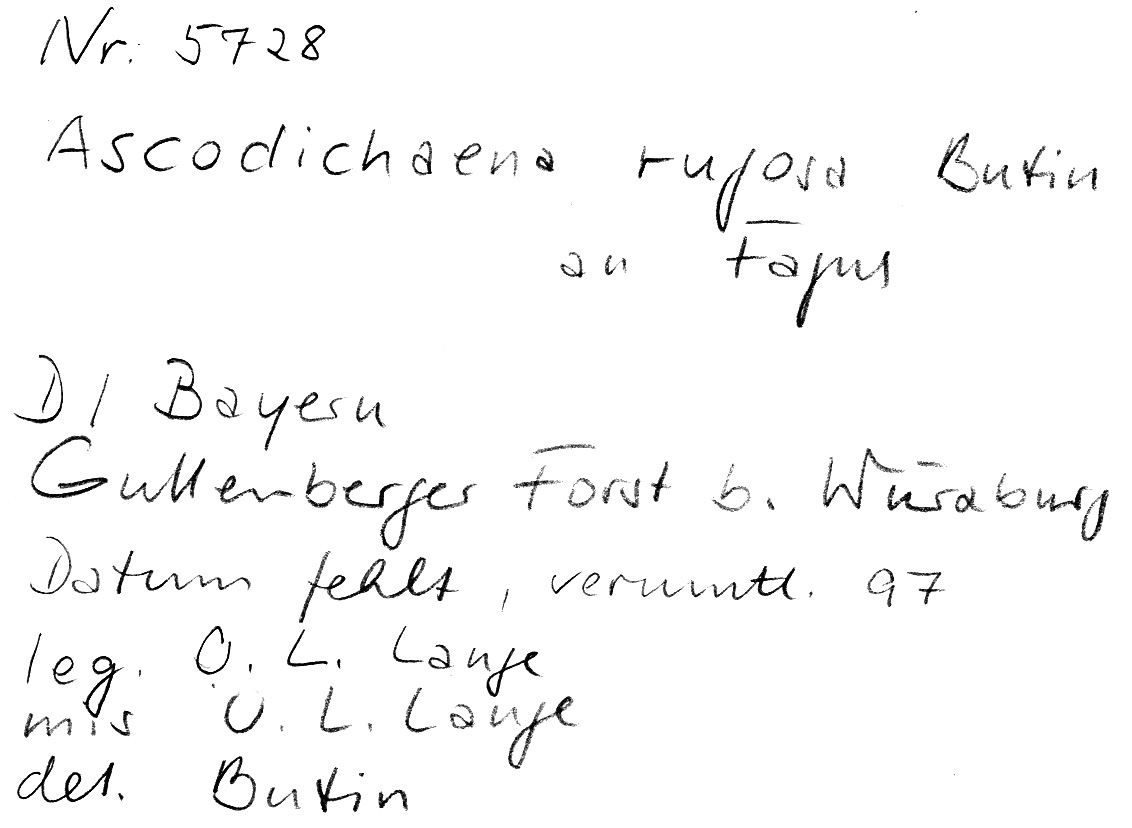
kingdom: Fungi
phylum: Ascomycota
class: Leotiomycetes
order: Rhytismatales
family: Ascodichaenaceae
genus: Ascodichaena
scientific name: Ascodichaena rugosa
